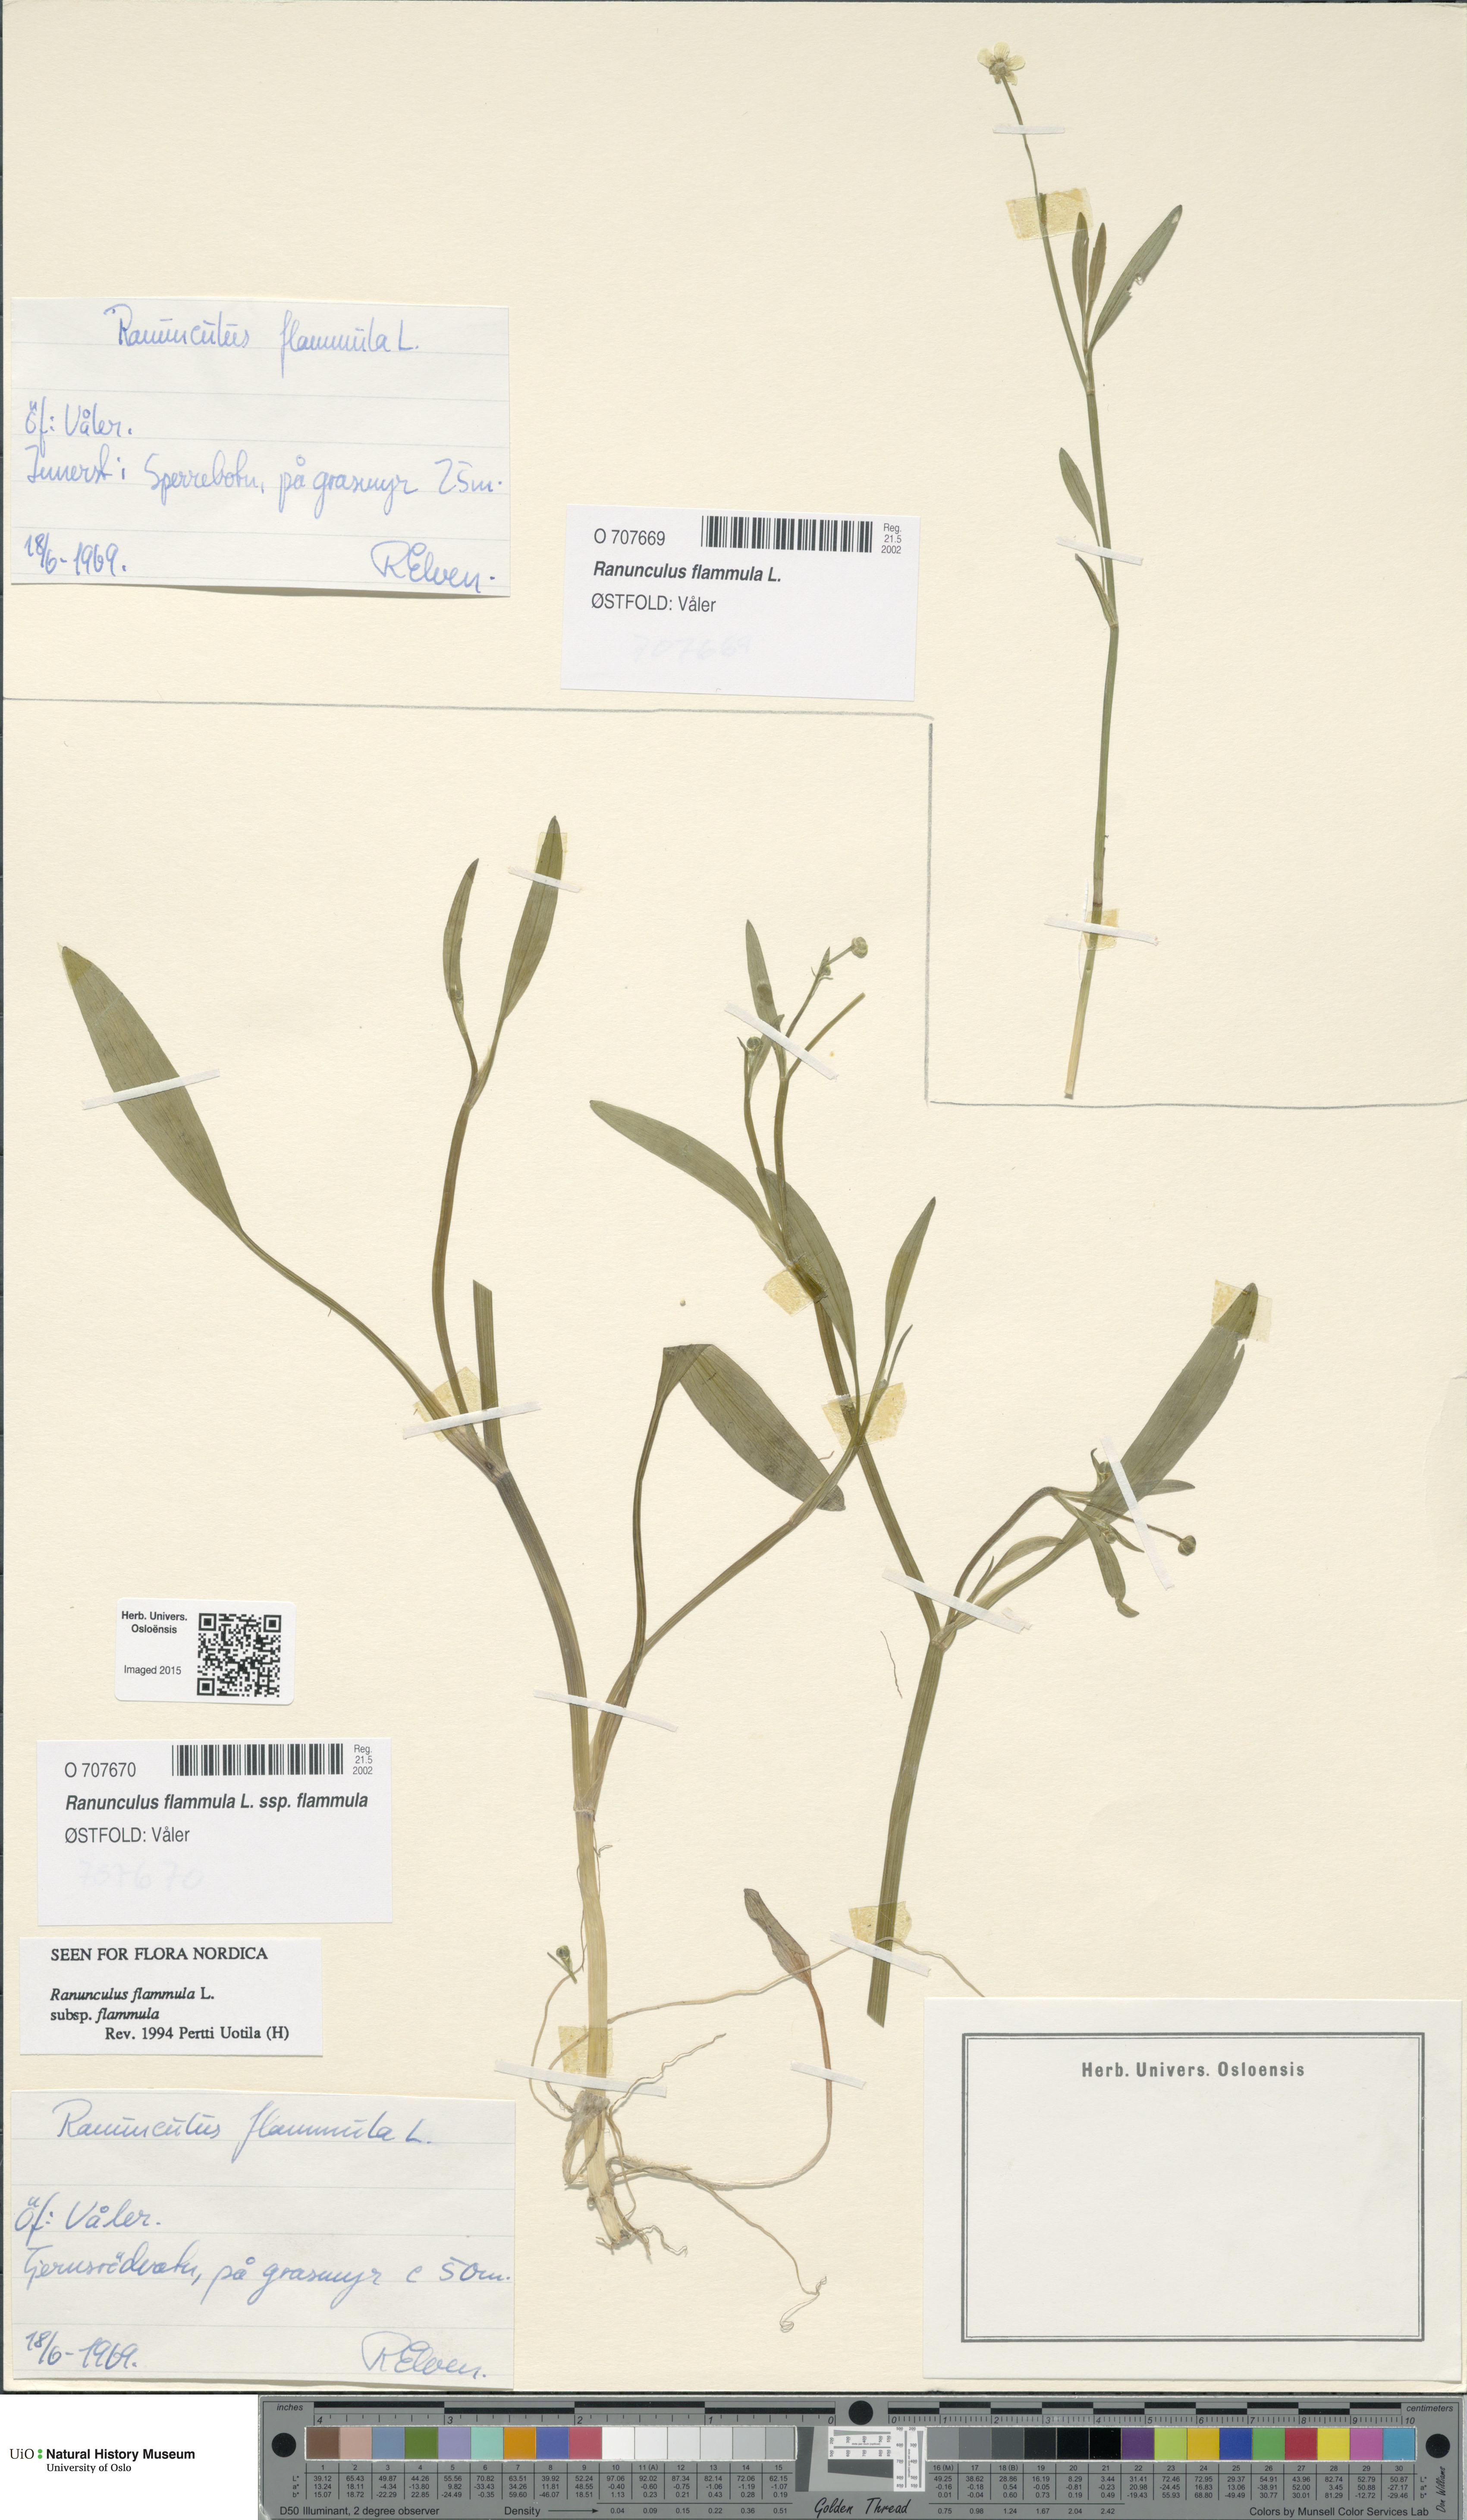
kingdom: Plantae
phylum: Tracheophyta
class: Magnoliopsida
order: Ranunculales
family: Ranunculaceae
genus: Ranunculus
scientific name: Ranunculus flammula
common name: Lesser spearwort
